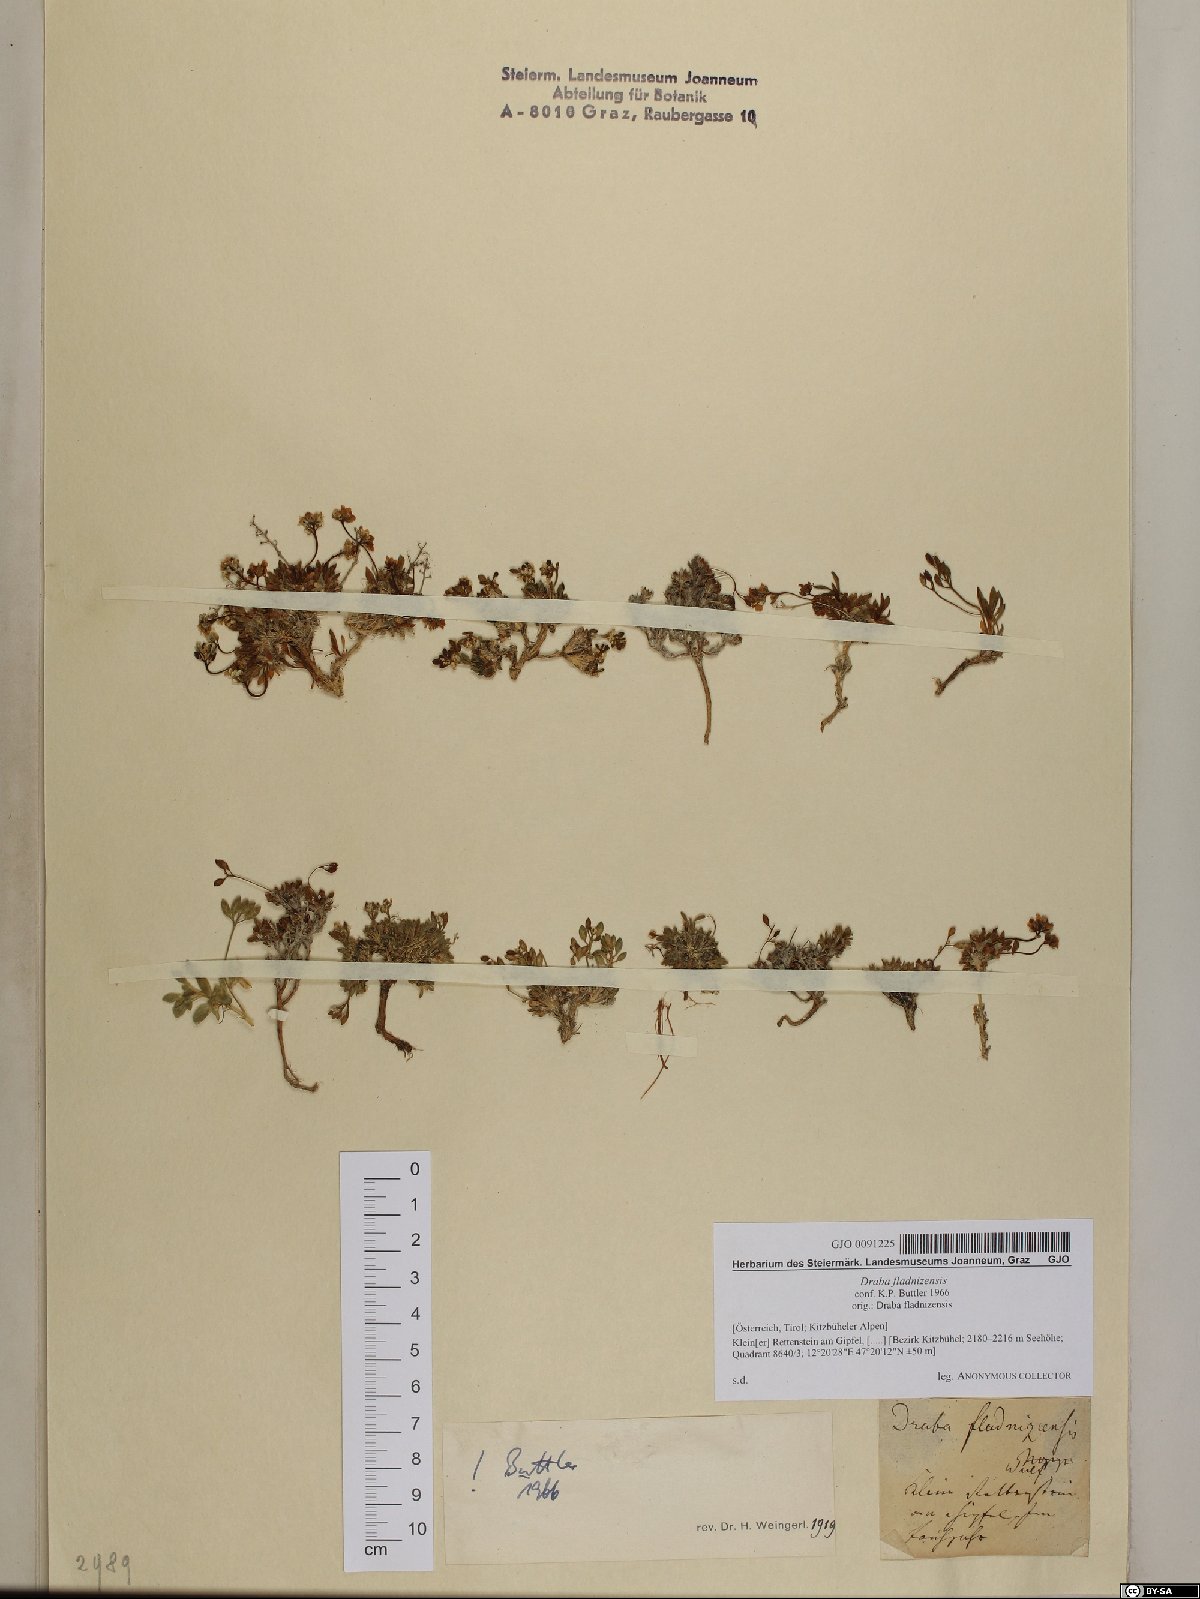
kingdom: Plantae
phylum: Tracheophyta
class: Magnoliopsida
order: Brassicales
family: Brassicaceae
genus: Draba
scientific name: Draba fladnizensis
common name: Austrian draba
